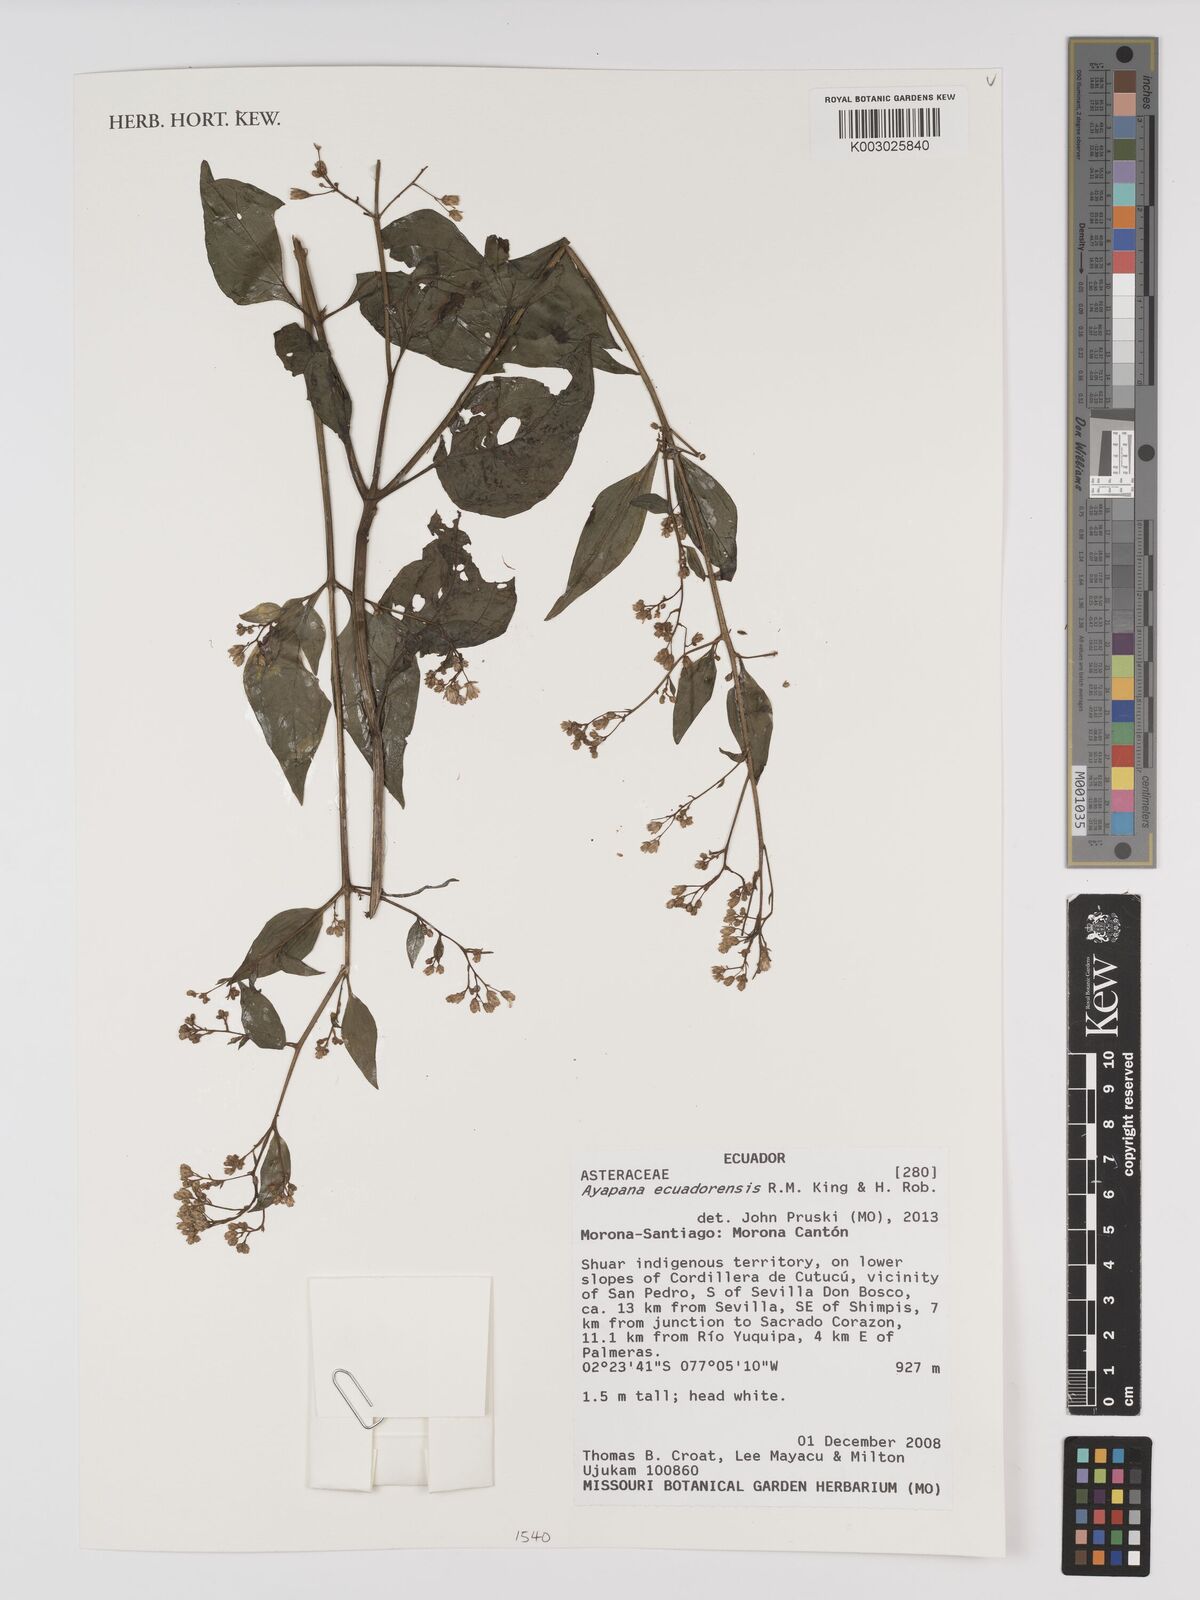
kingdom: Plantae
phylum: Tracheophyta
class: Magnoliopsida
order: Asterales
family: Asteraceae
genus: Ayapana
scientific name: Ayapana ecuadorensis
